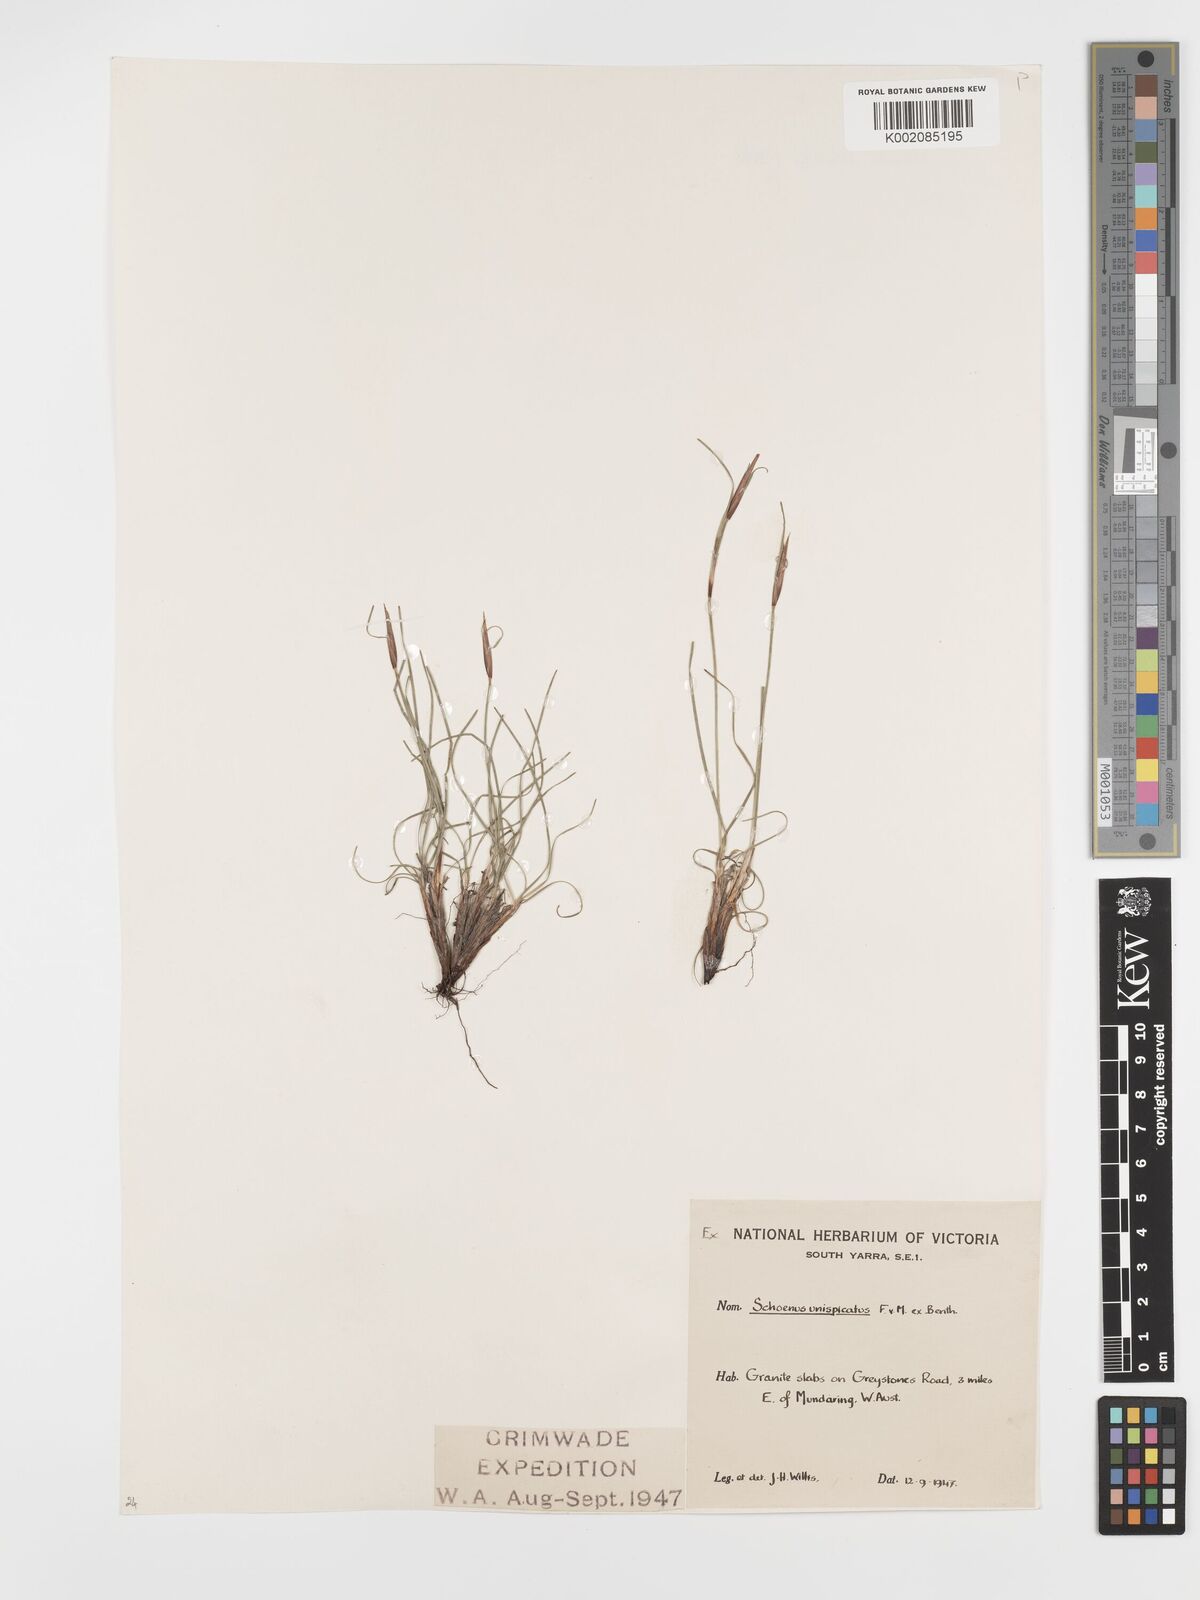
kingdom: Plantae
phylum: Tracheophyta
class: Liliopsida
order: Poales
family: Cyperaceae
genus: Schoenus
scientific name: Schoenus unispiculatus
